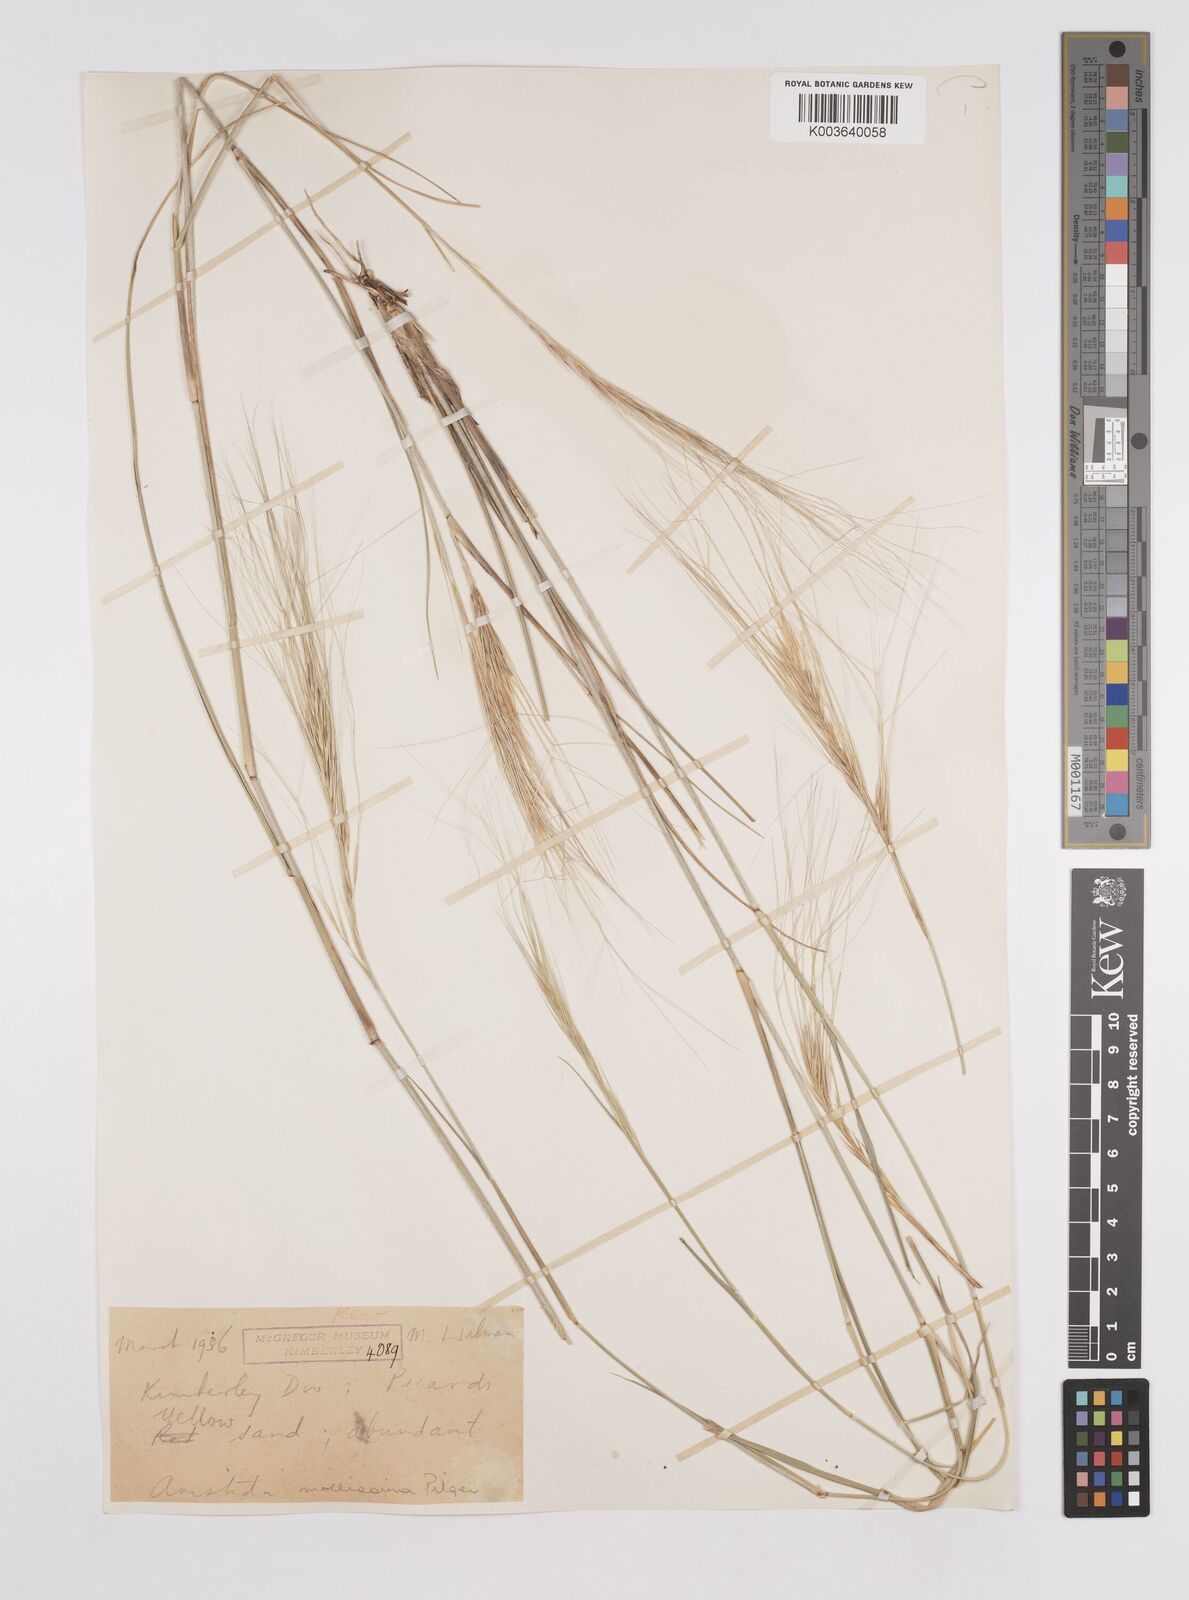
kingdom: Plantae
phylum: Tracheophyta
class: Liliopsida
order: Poales
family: Poaceae
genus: Aristida
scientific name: Aristida mollissima
